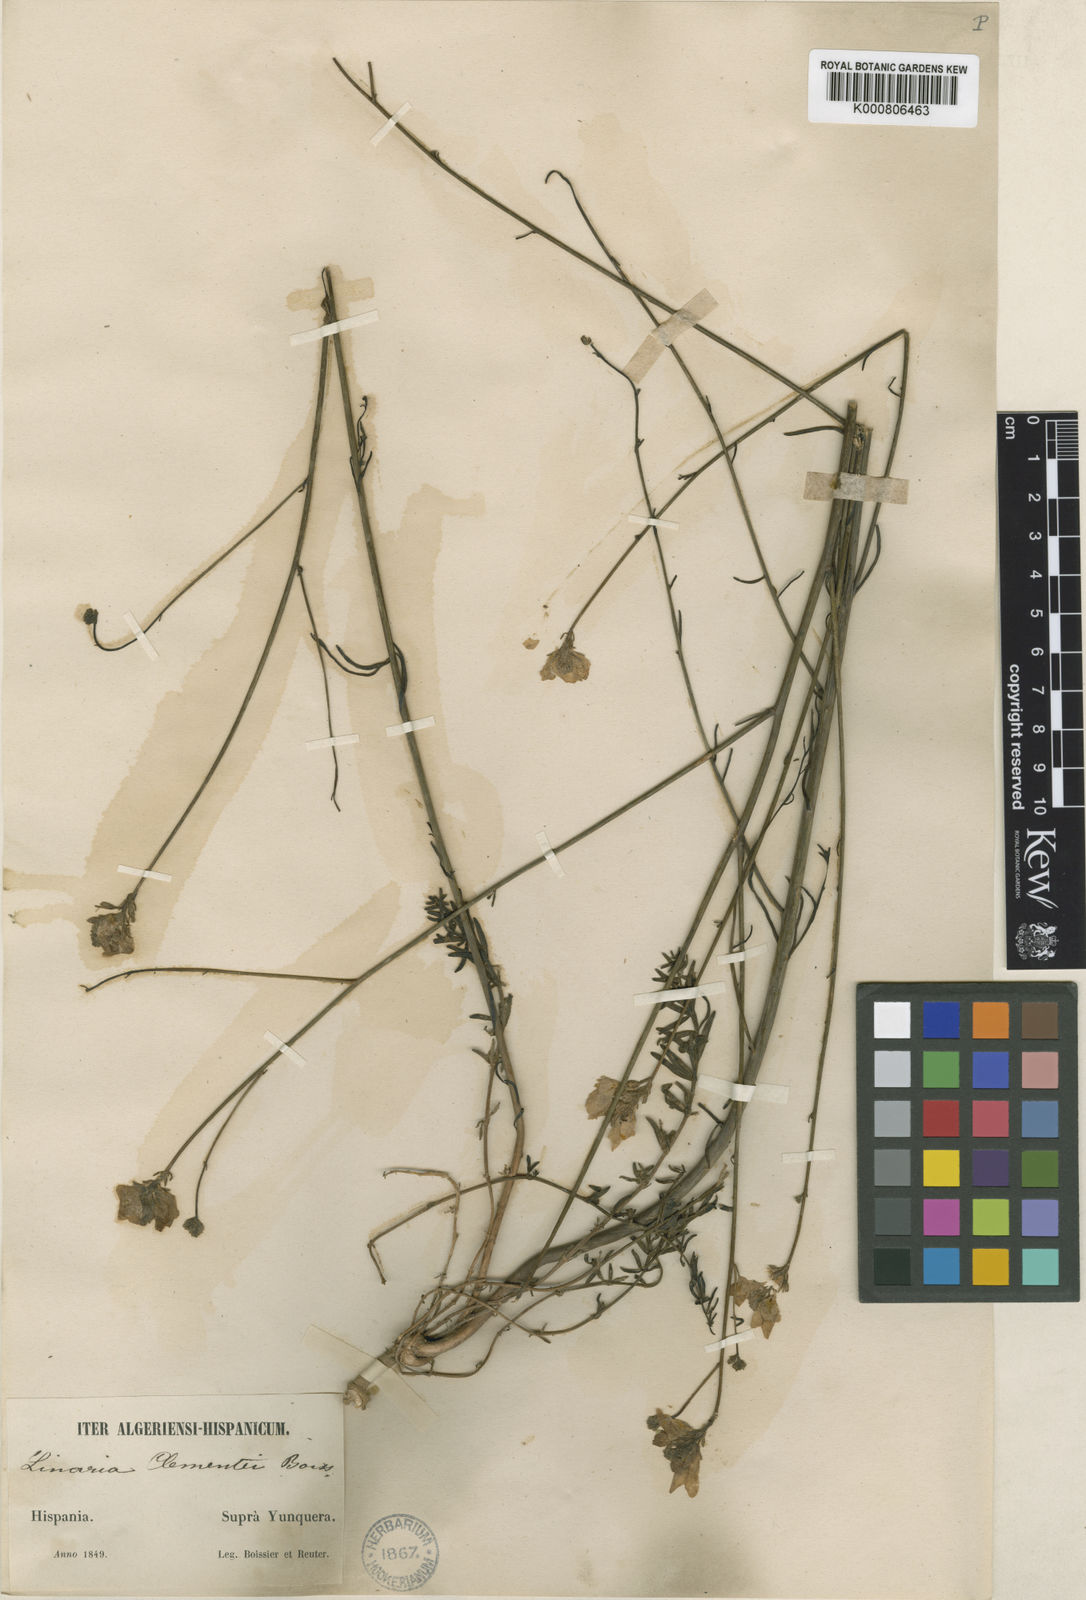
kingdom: Plantae
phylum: Tracheophyta
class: Magnoliopsida
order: Lamiales
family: Plantaginaceae
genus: Linaria
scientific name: Linaria clementei
